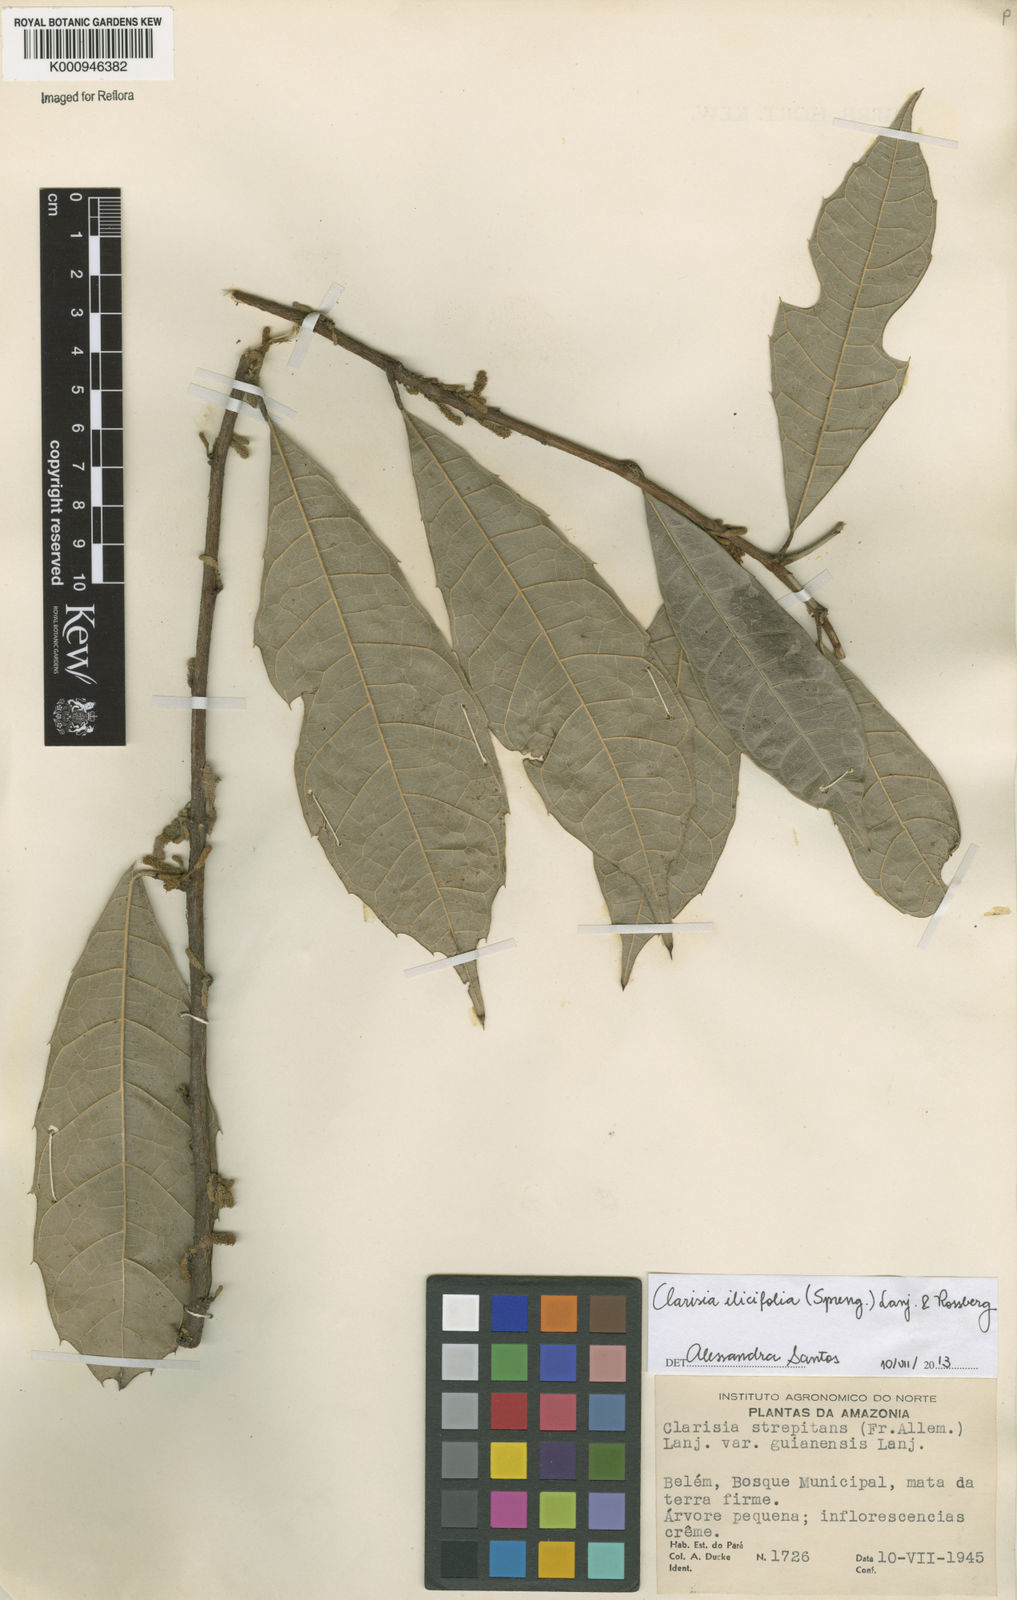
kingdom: Plantae
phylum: Tracheophyta
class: Magnoliopsida
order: Rosales
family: Moraceae
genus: Clarisia
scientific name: Clarisia ilicifolia
